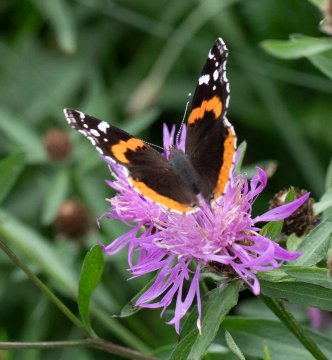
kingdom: Animalia
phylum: Arthropoda
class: Insecta
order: Lepidoptera
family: Nymphalidae
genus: Vanessa
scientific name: Vanessa atalanta
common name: Red Admiral
